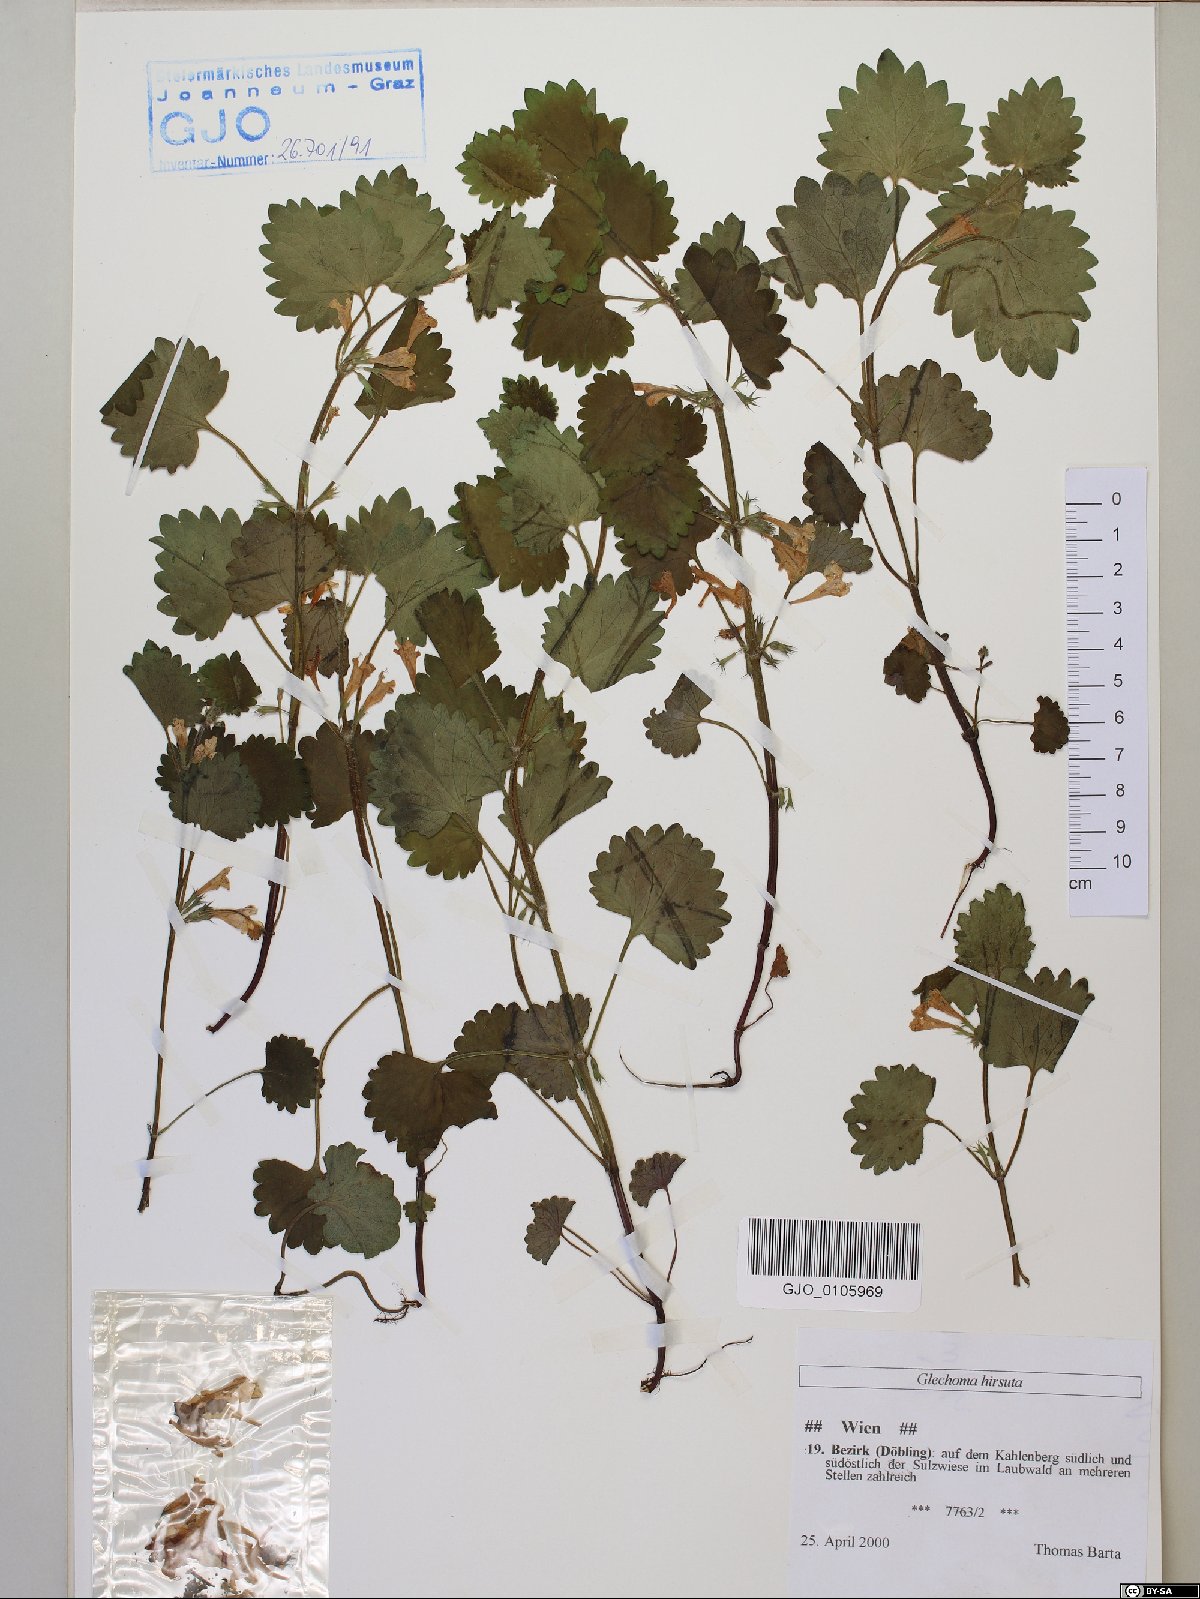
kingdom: Plantae
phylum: Tracheophyta
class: Magnoliopsida
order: Lamiales
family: Lamiaceae
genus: Glechoma
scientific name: Glechoma hirsuta
